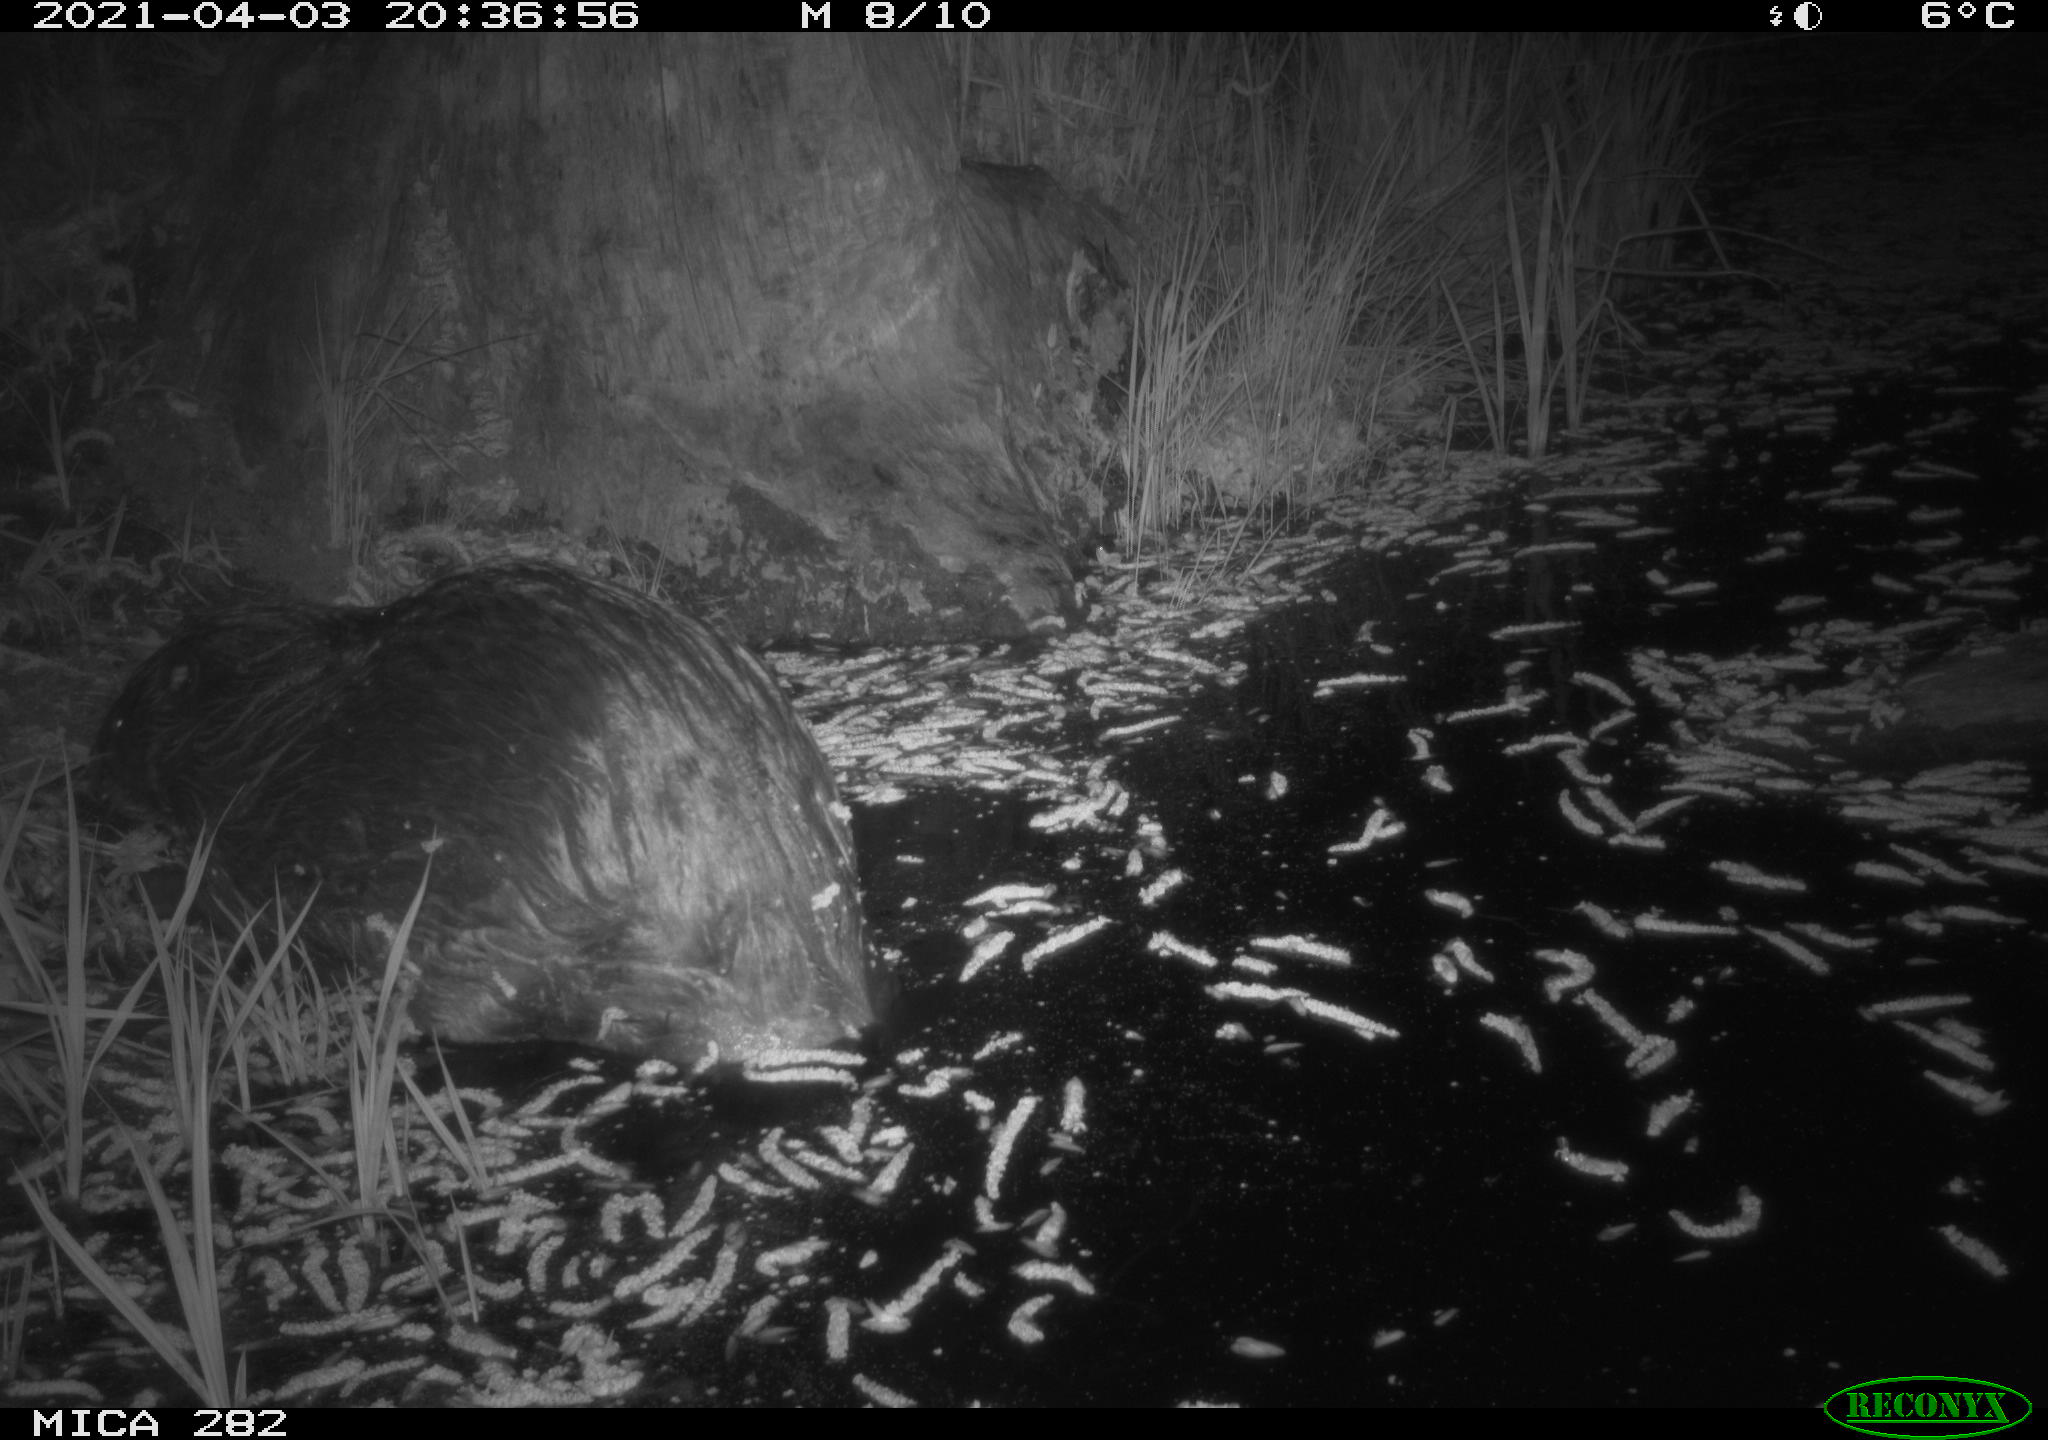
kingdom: Animalia
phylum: Chordata
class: Mammalia
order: Rodentia
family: Castoridae
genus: Castor
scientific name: Castor fiber
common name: Eurasian beaver
